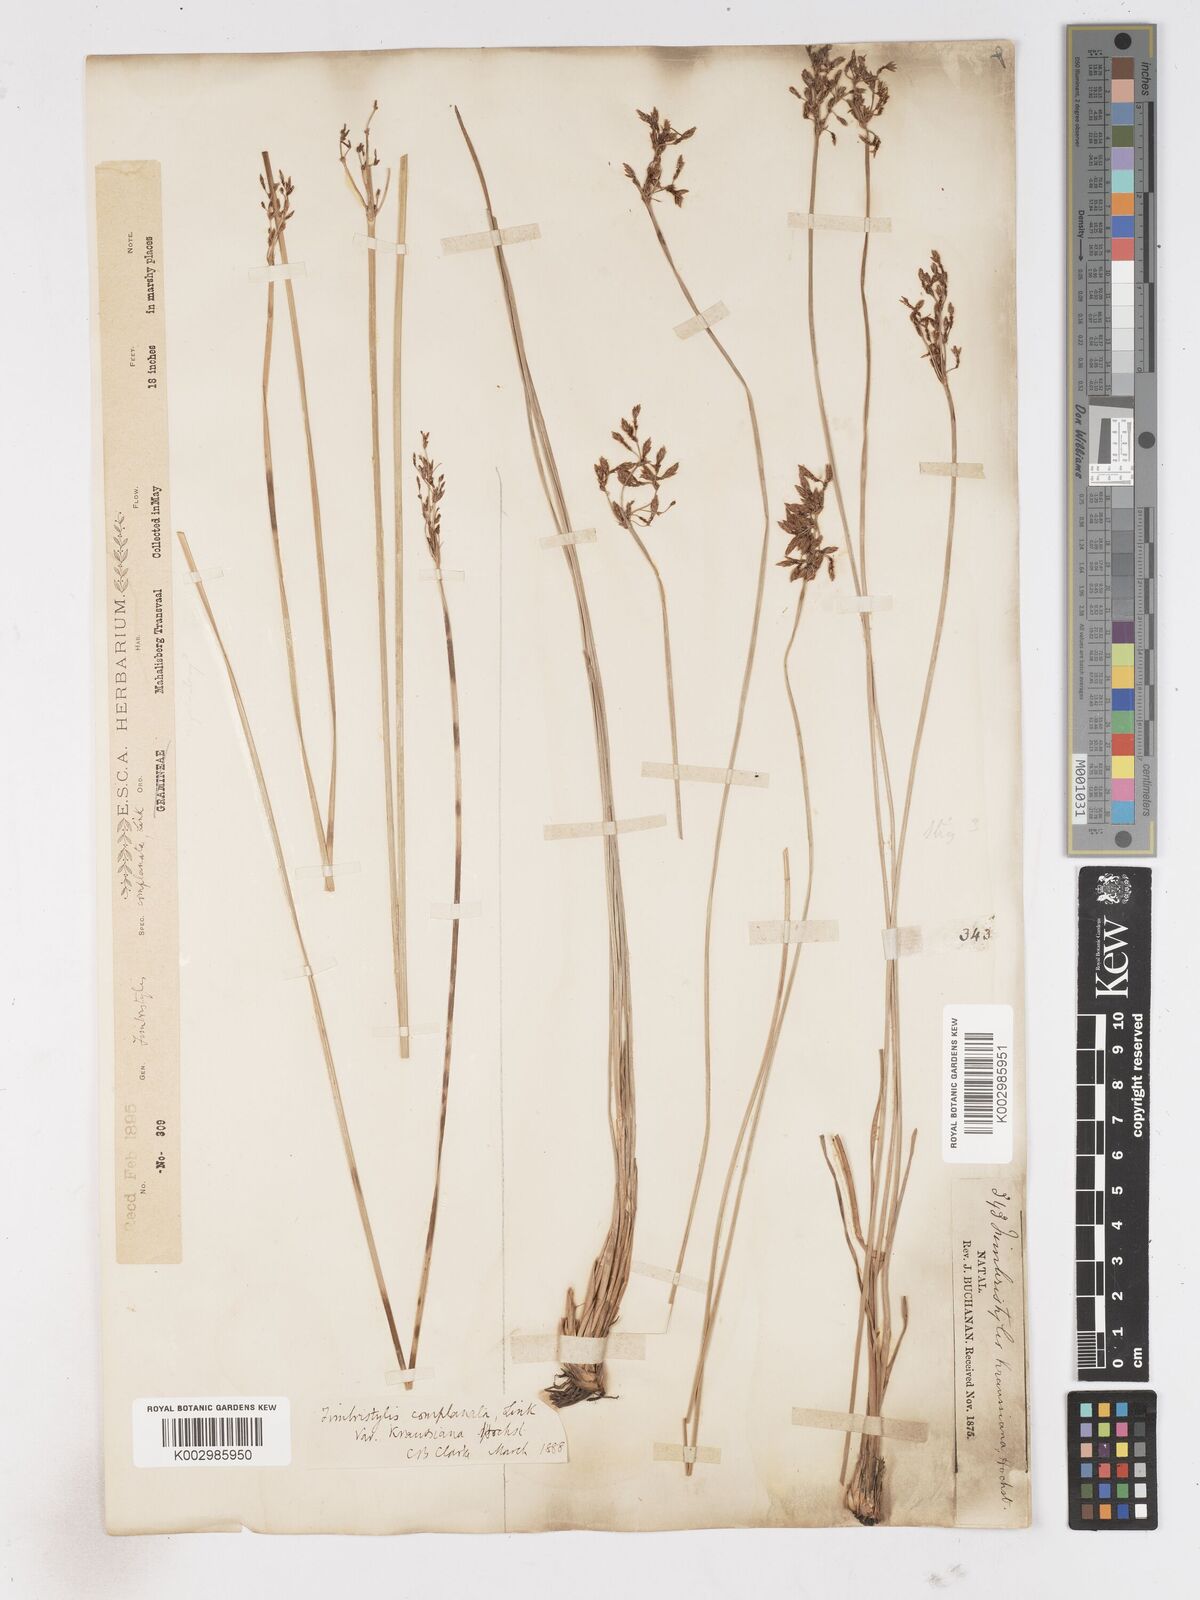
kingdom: Plantae
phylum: Tracheophyta
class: Liliopsida
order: Poales
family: Cyperaceae
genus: Fimbristylis
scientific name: Fimbristylis complanata
